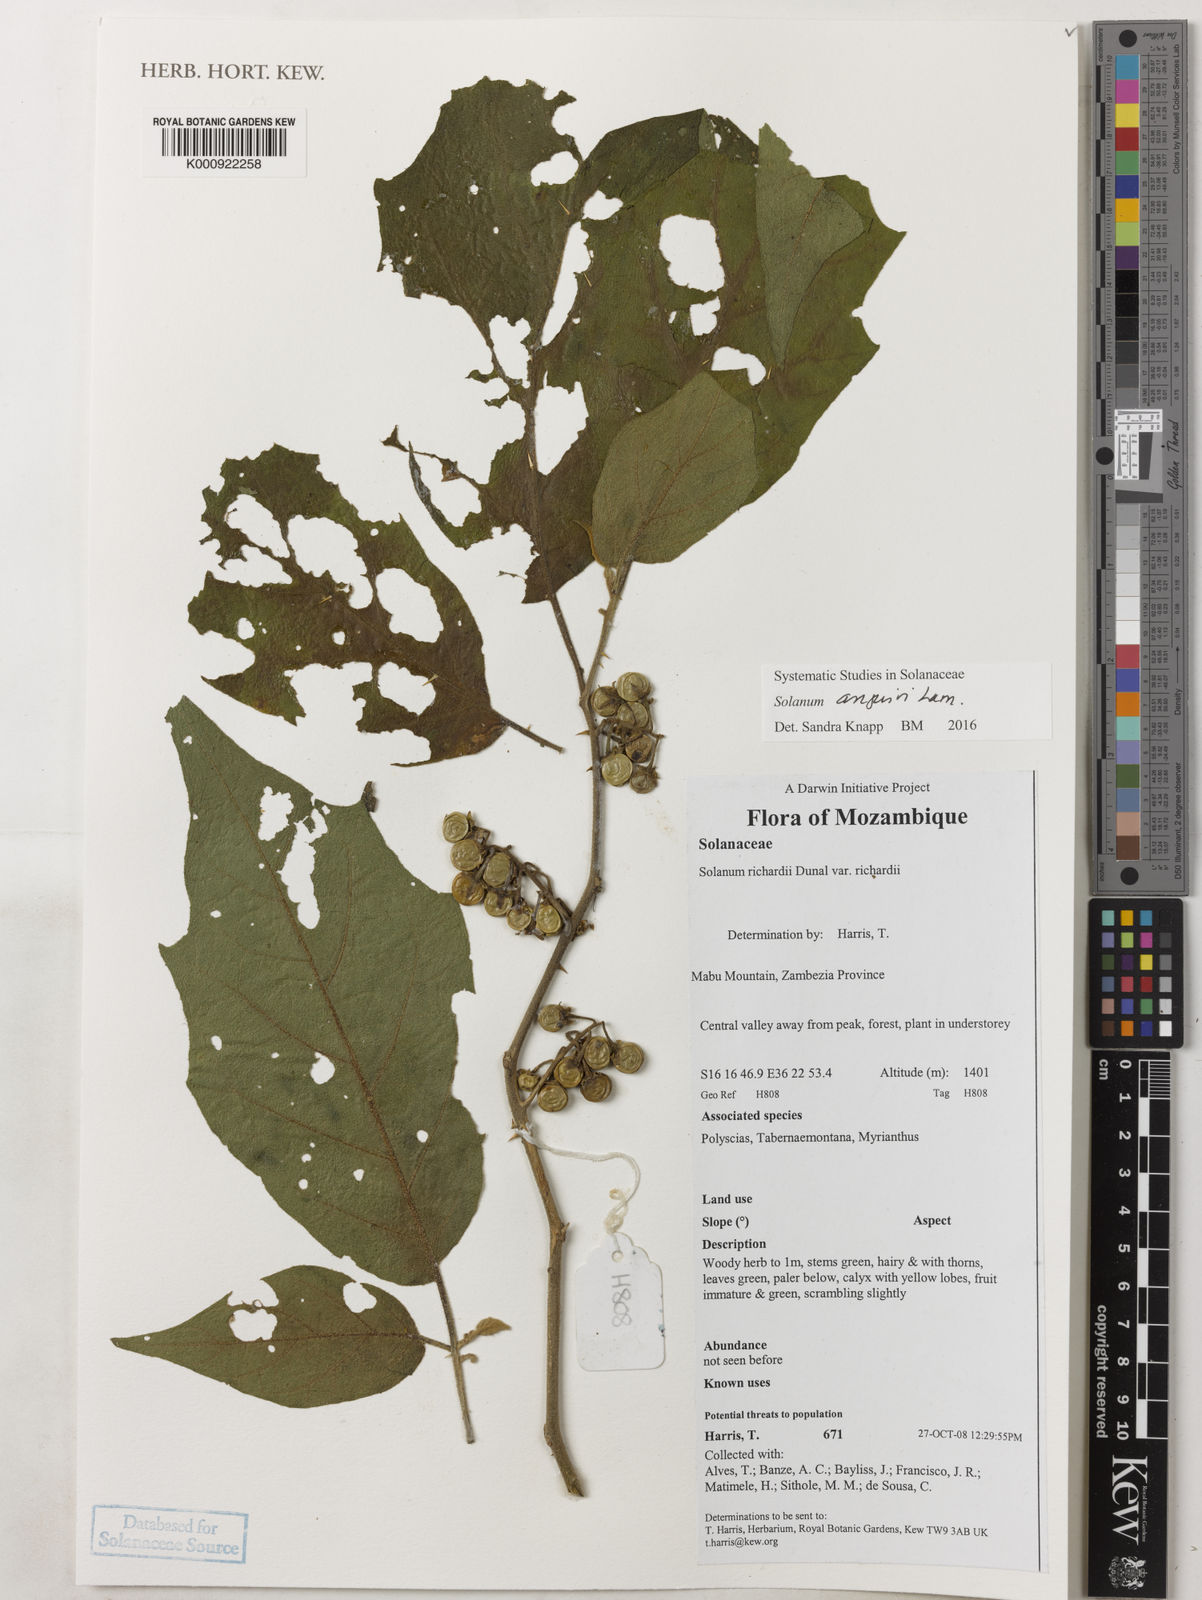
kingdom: Plantae
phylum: Tracheophyta
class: Magnoliopsida
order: Solanales
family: Solanaceae
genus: Solanum
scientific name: Solanum anguivi
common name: Forest bitterberry
